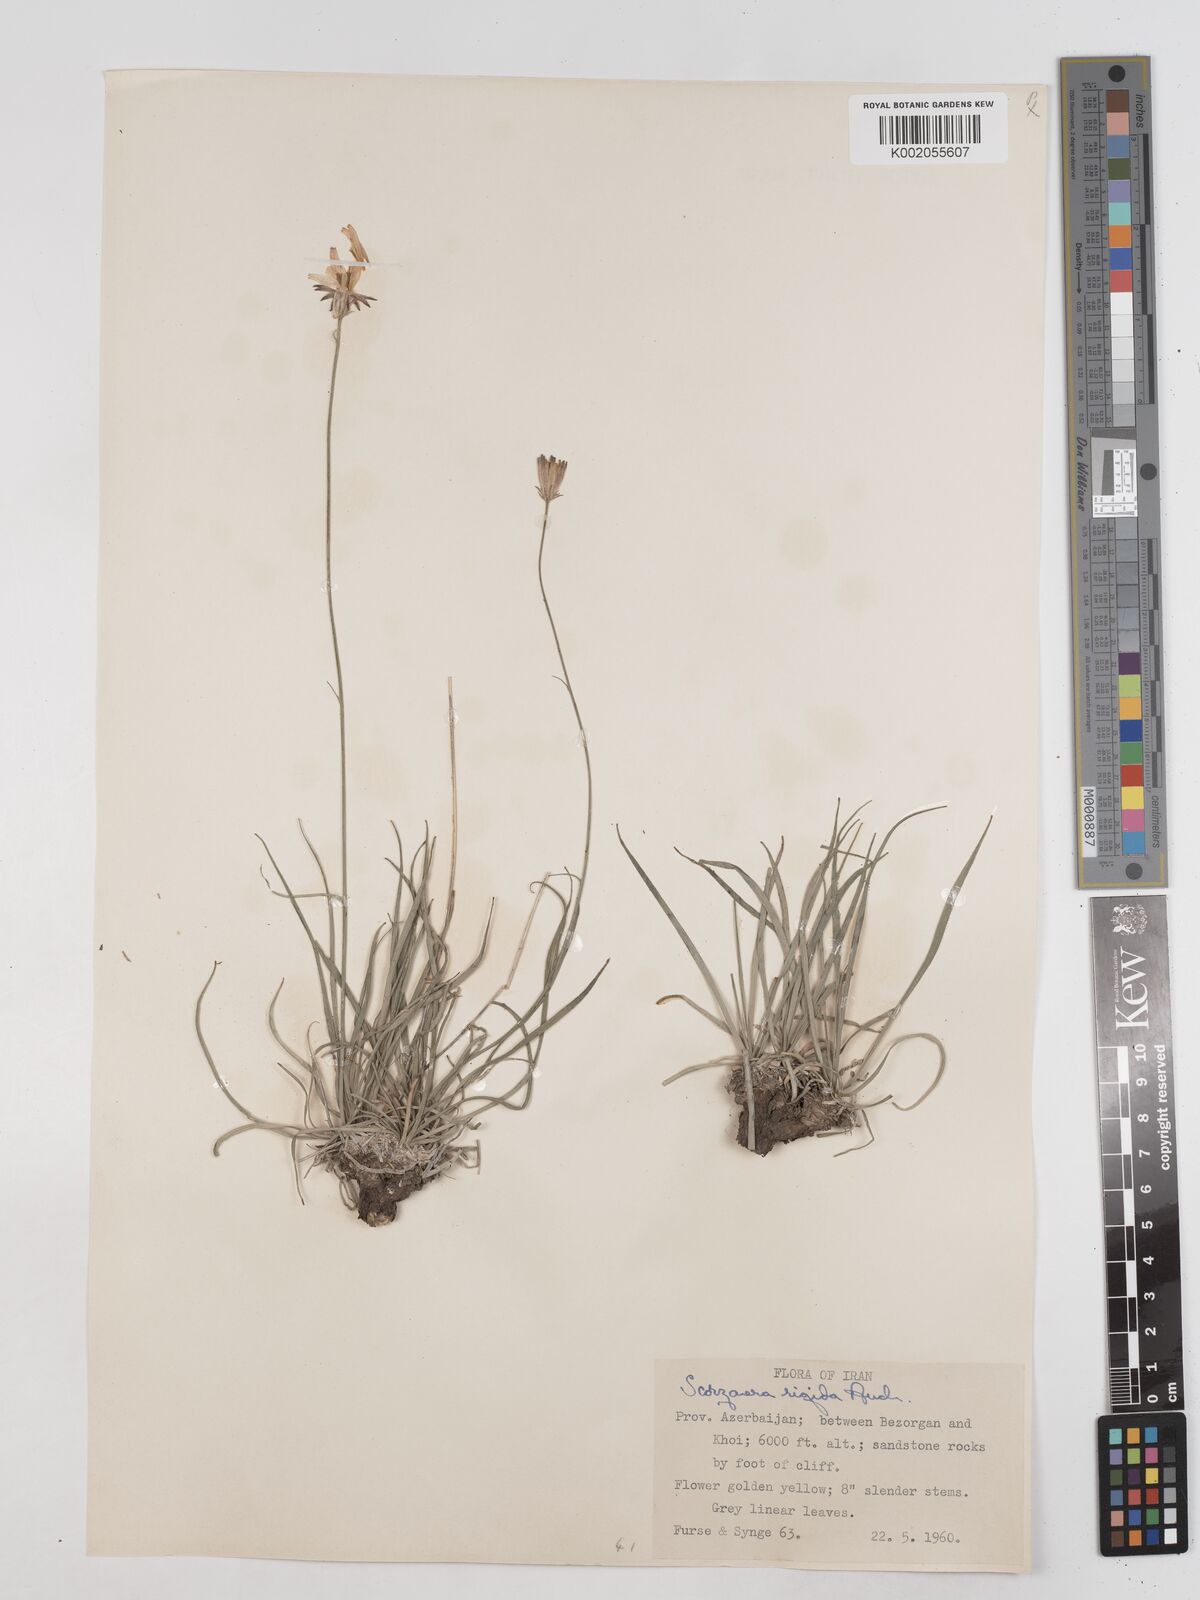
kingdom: Plantae
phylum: Tracheophyta
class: Magnoliopsida
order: Asterales
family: Asteraceae
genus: Goekyighitia
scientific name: Goekyighitia rigida
